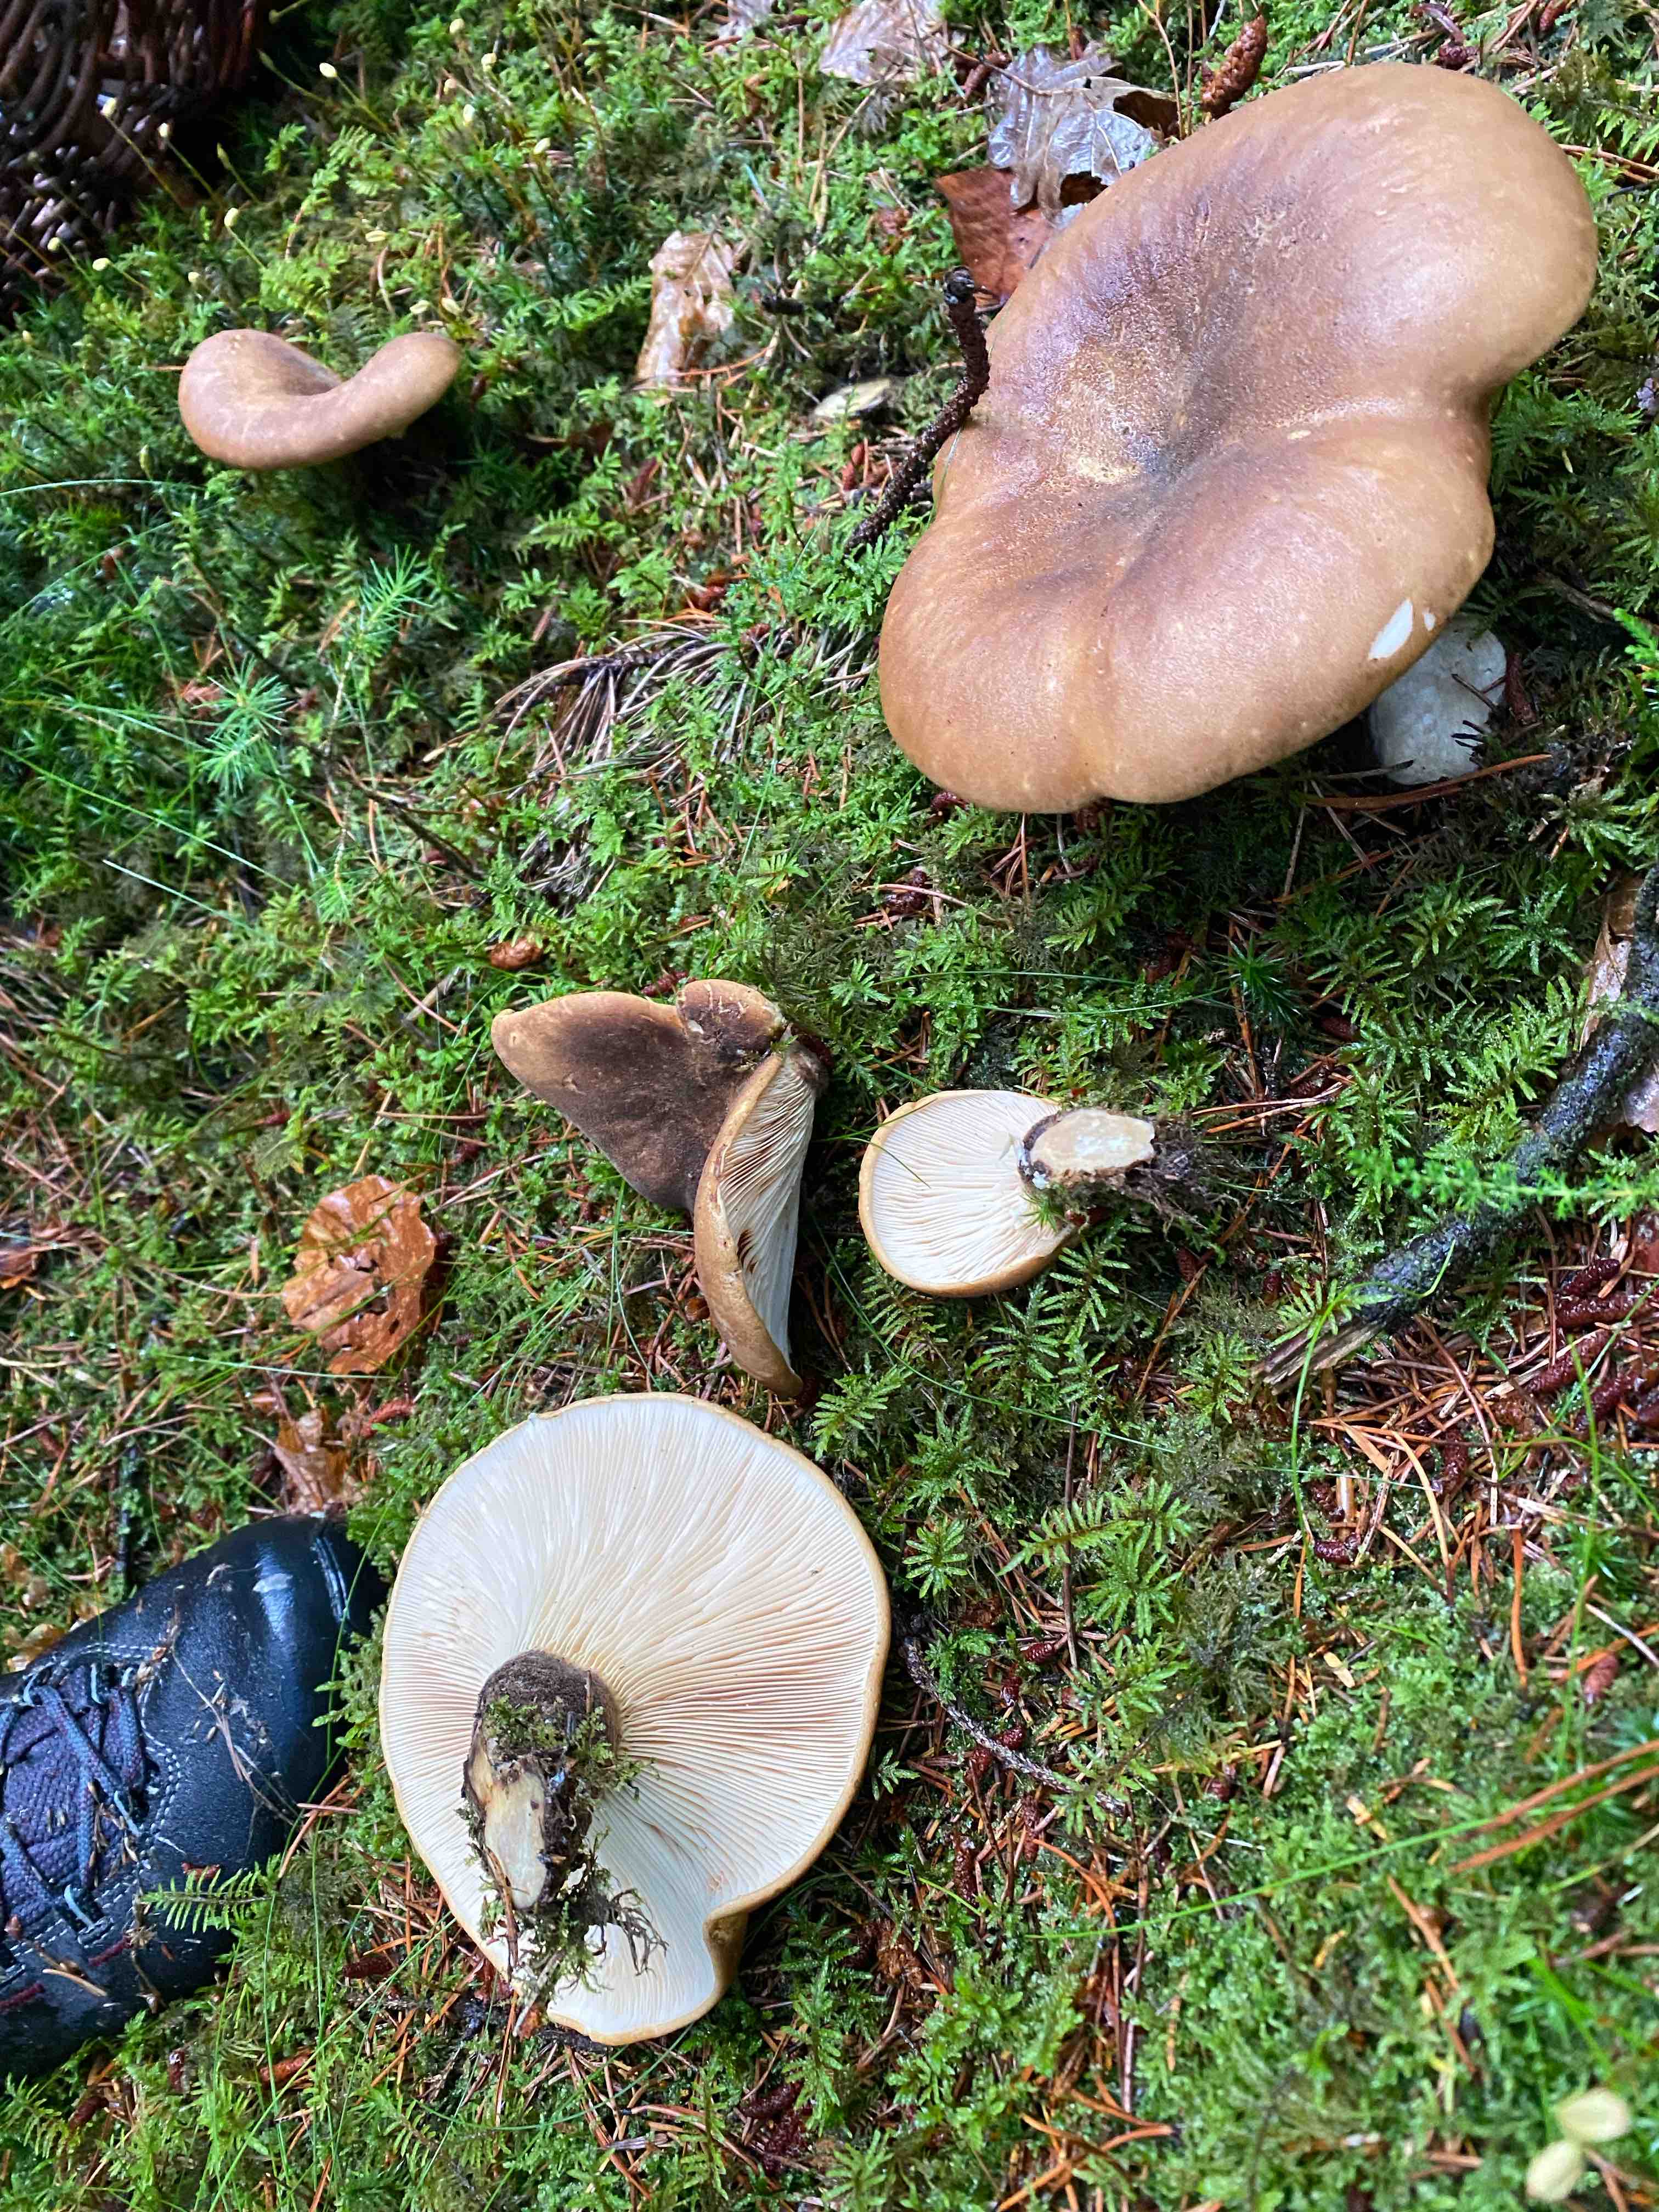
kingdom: Fungi
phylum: Basidiomycota
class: Agaricomycetes
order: Boletales
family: Tapinellaceae
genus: Tapinella
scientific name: Tapinella atrotomentosa
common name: sortfiltet viftesvamp
